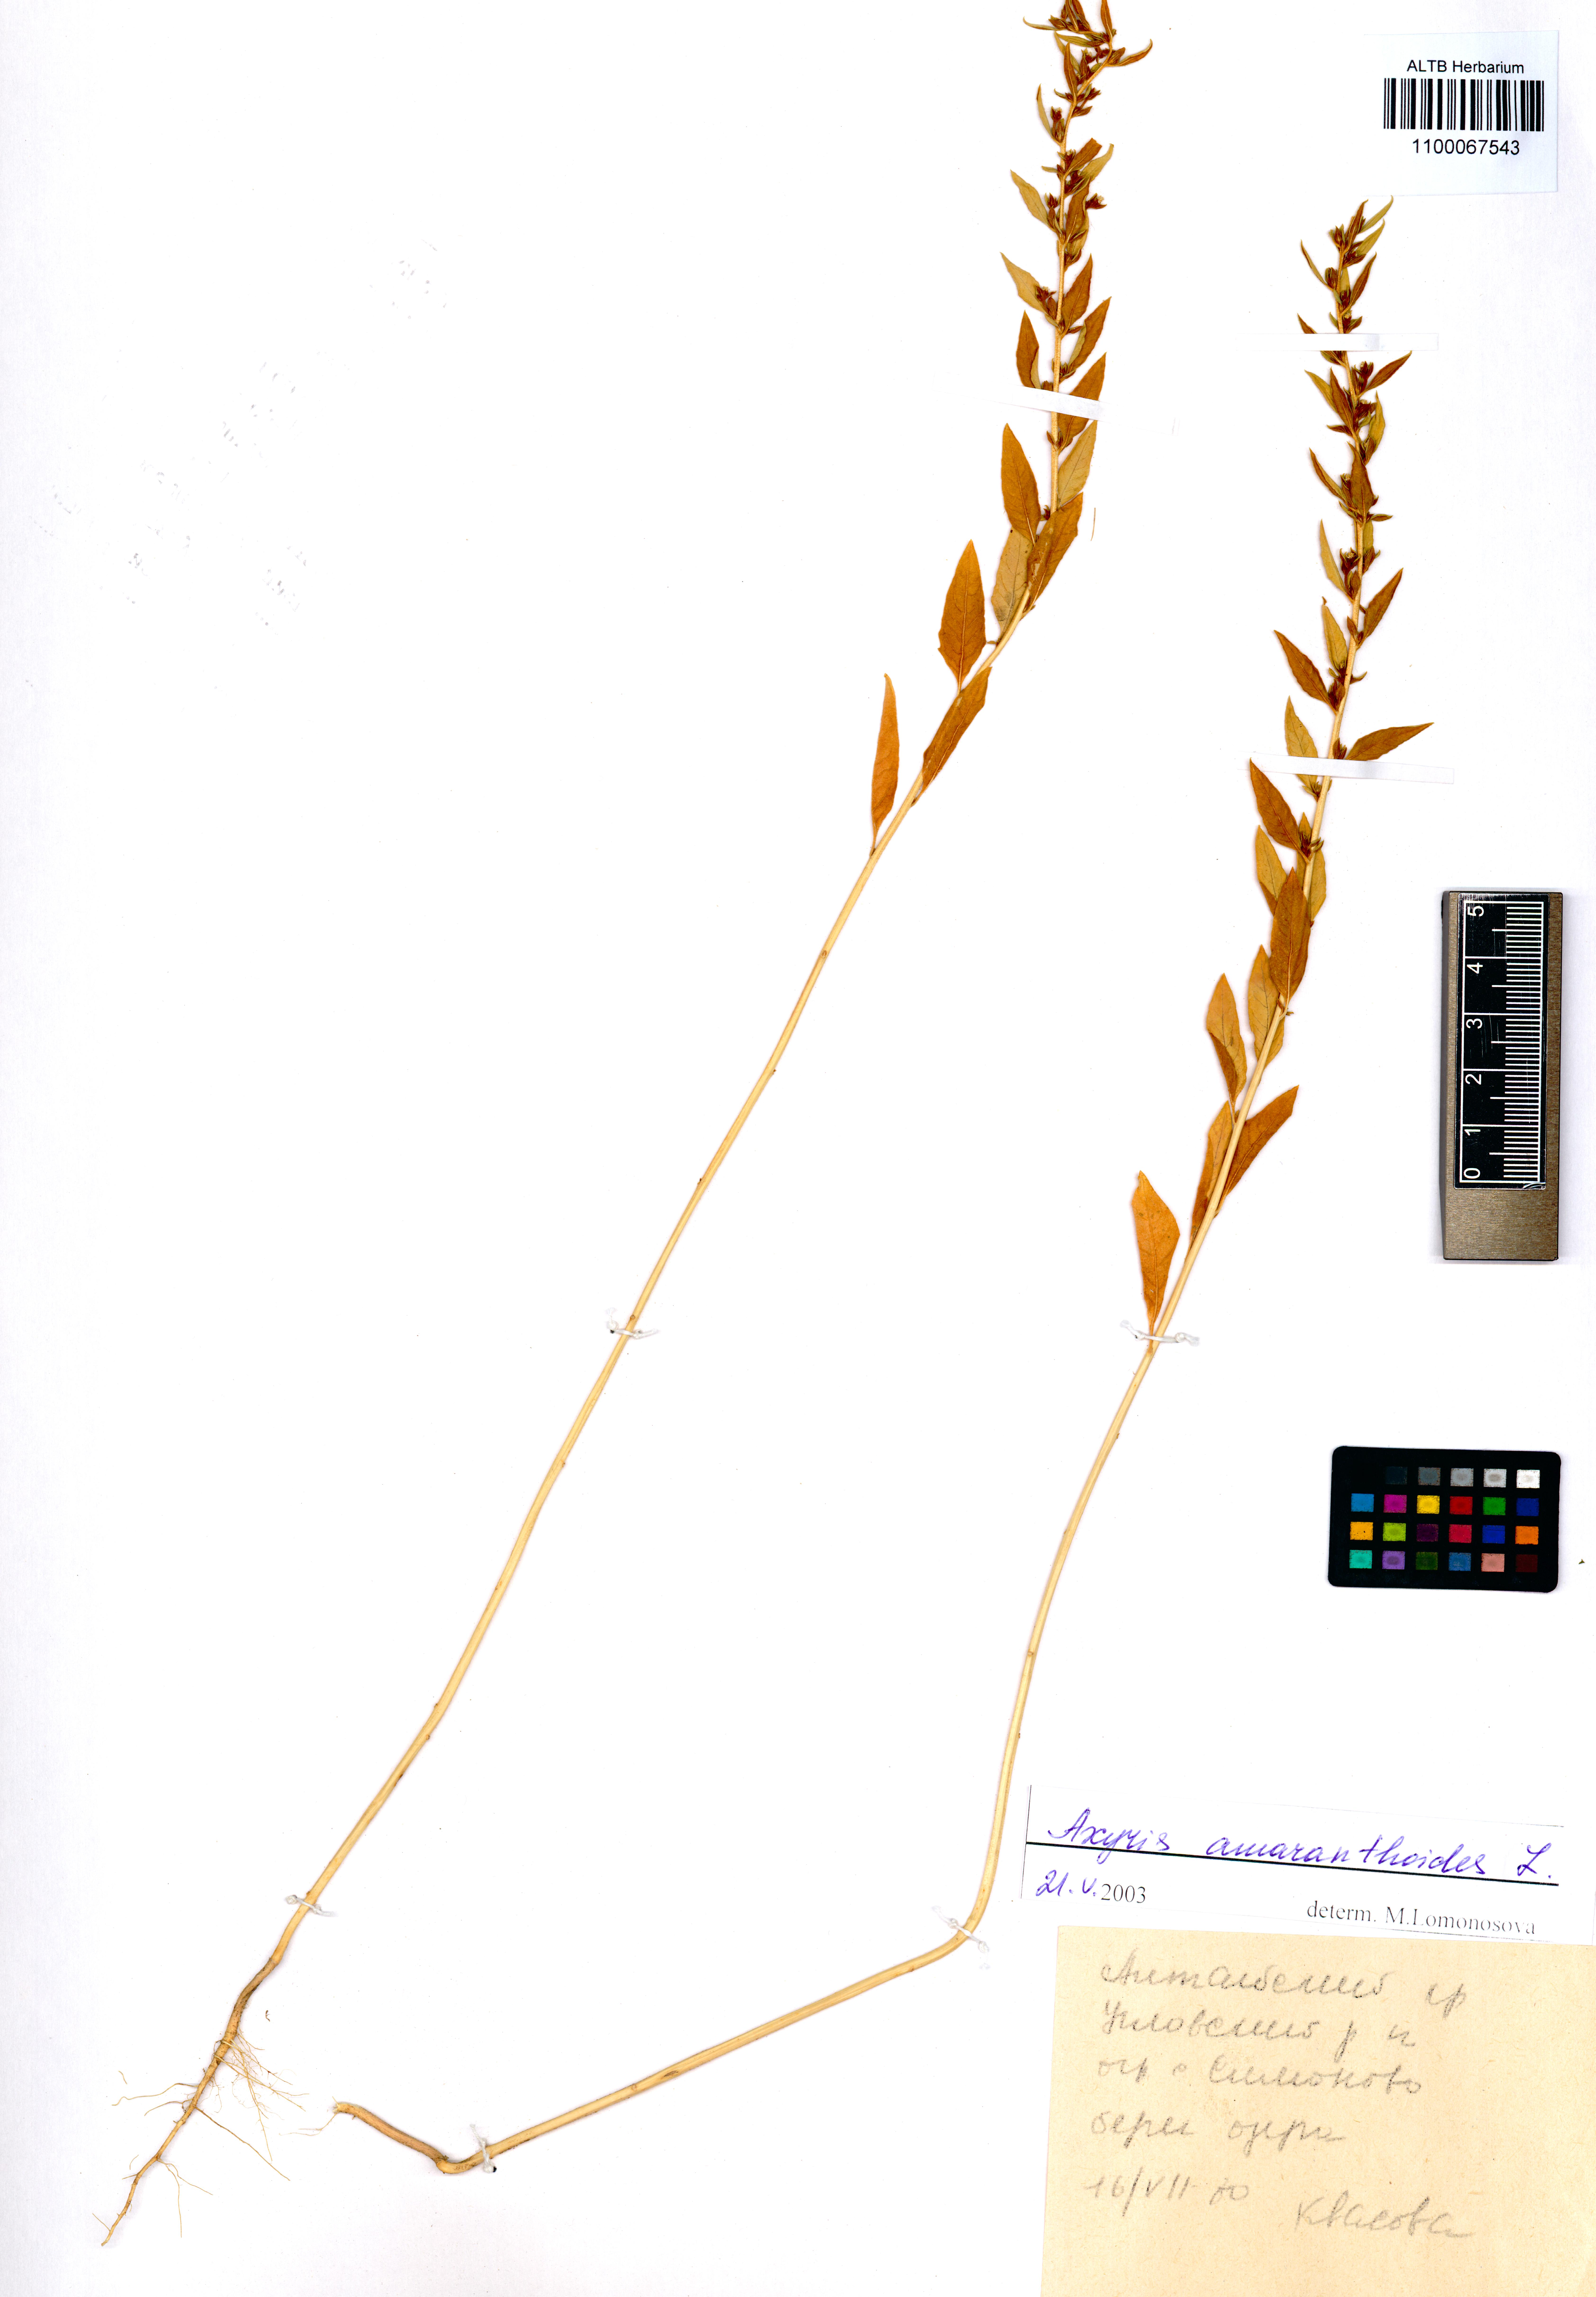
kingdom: Plantae
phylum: Tracheophyta
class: Magnoliopsida
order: Caryophyllales
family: Amaranthaceae
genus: Axyris
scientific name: Axyris amaranthoides
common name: Russian pigweed
